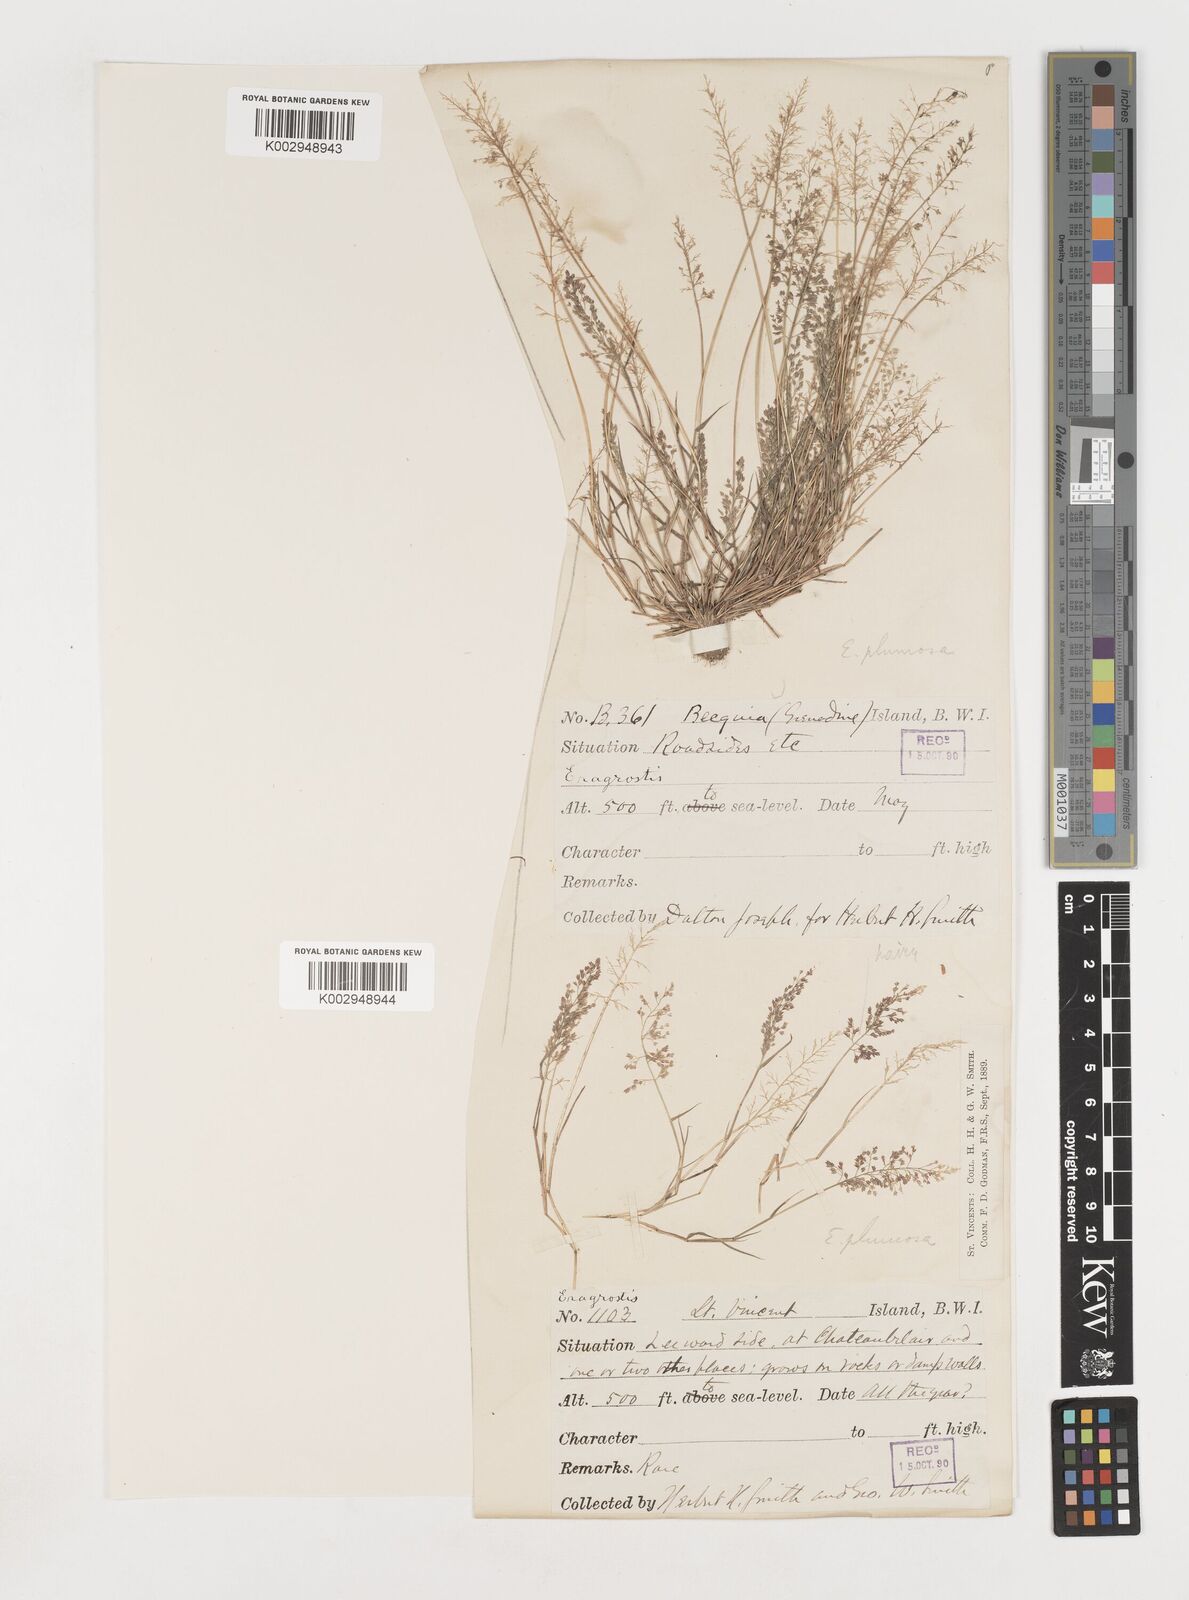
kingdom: Plantae
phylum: Tracheophyta
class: Liliopsida
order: Poales
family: Poaceae
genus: Eragrostis
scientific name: Eragrostis tenella
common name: Japanese lovegrass
